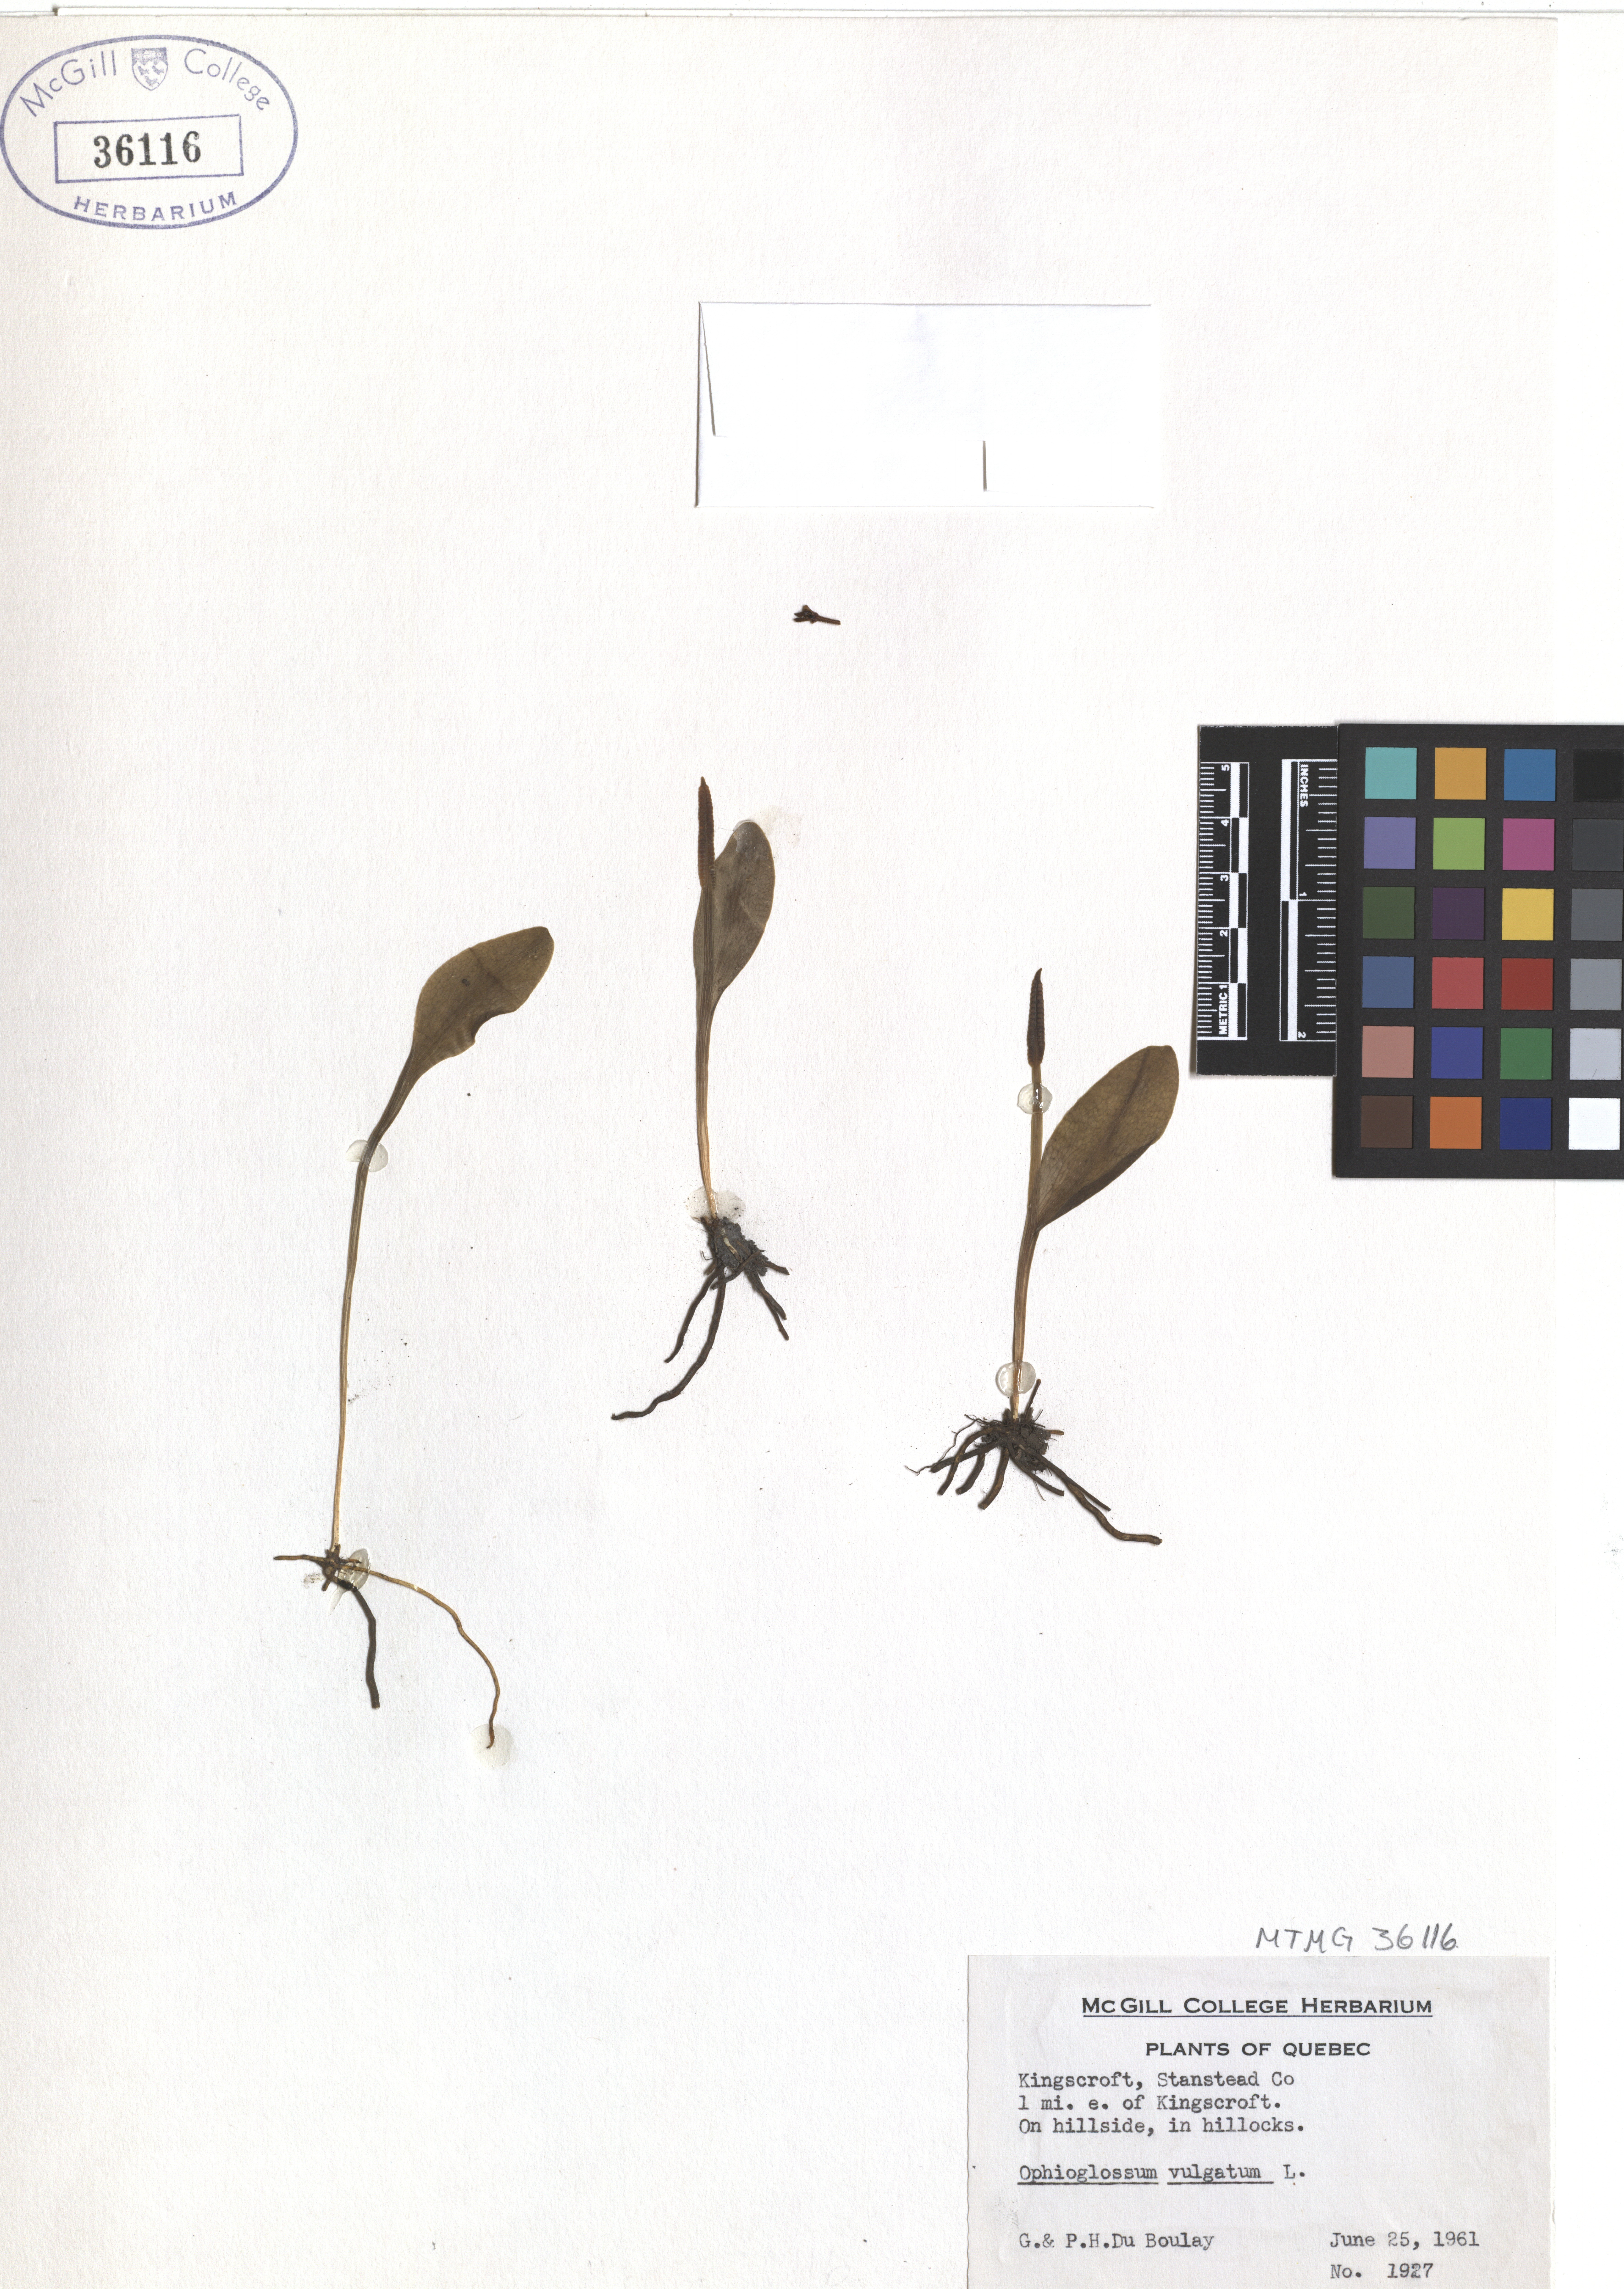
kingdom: Plantae
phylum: Tracheophyta
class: Polypodiopsida
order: Ophioglossales
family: Ophioglossaceae
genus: Ophioglossum
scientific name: Ophioglossum vulgatum
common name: Adder's-tongue
